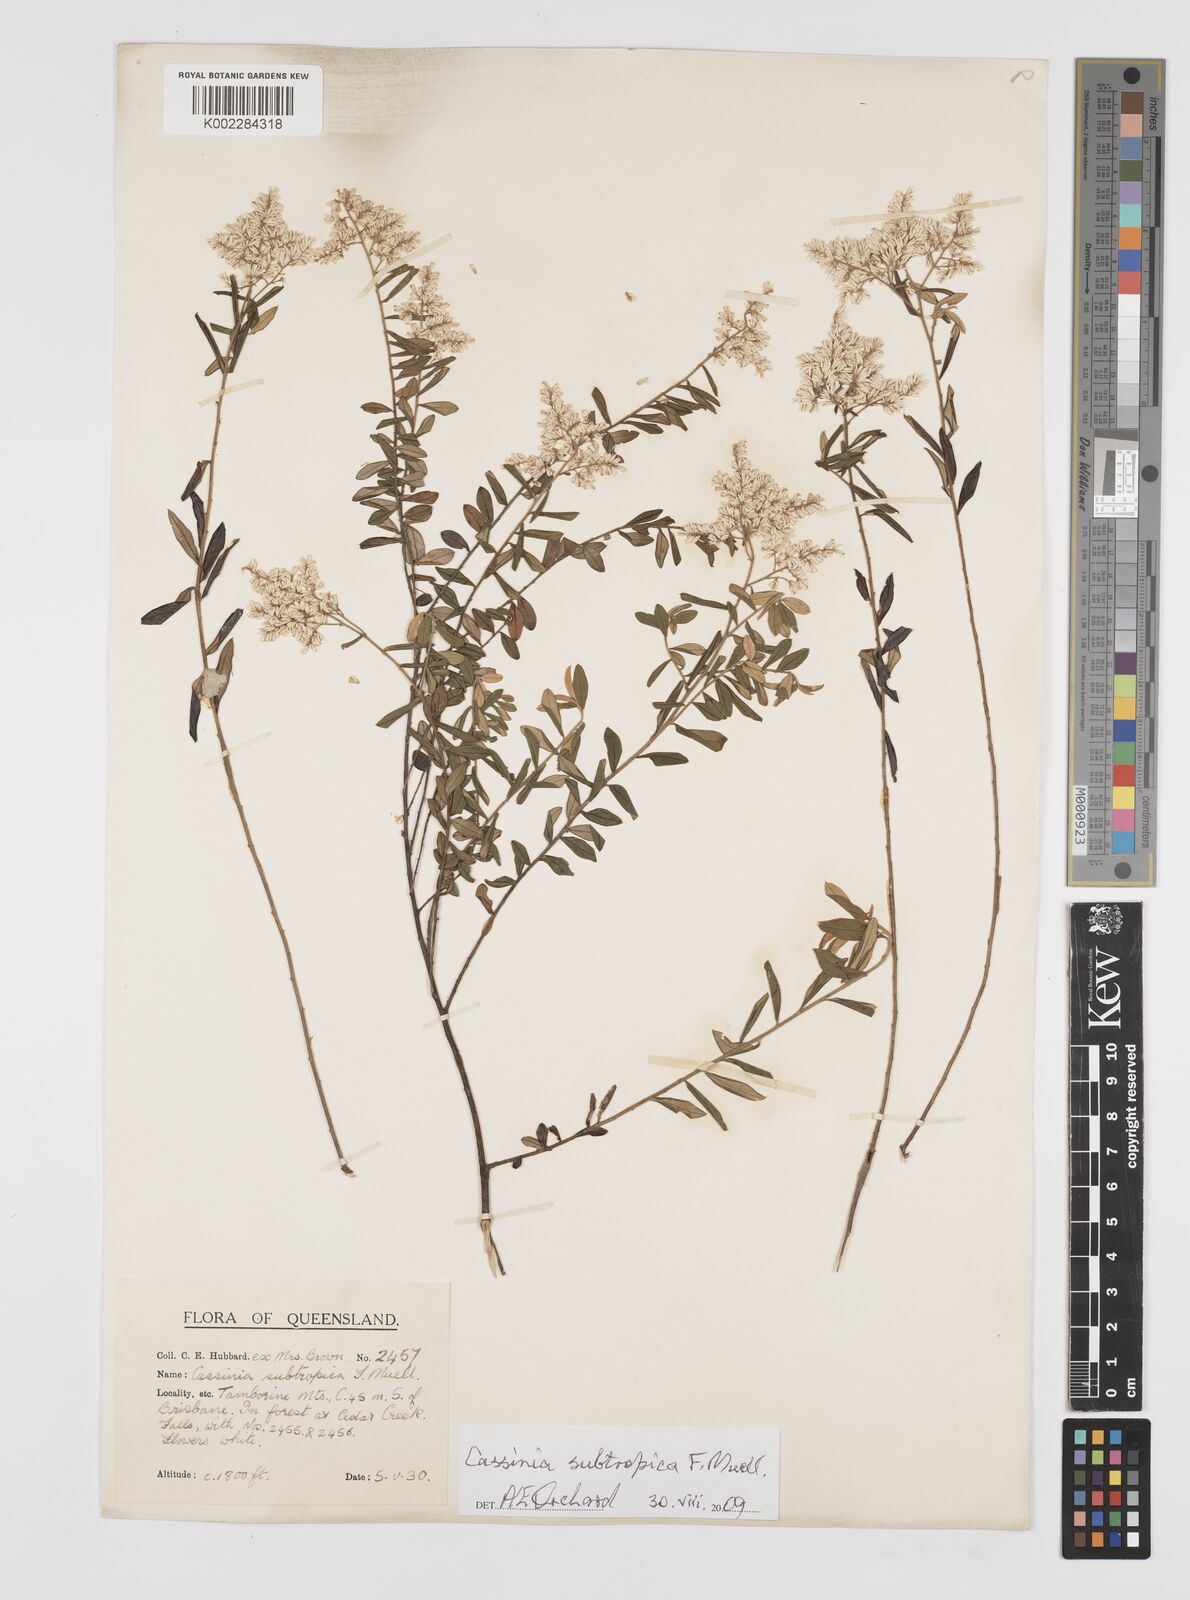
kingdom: Plantae
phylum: Tracheophyta
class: Magnoliopsida
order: Asterales
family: Asteraceae
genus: Cassinia
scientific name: Cassinia subtropica
